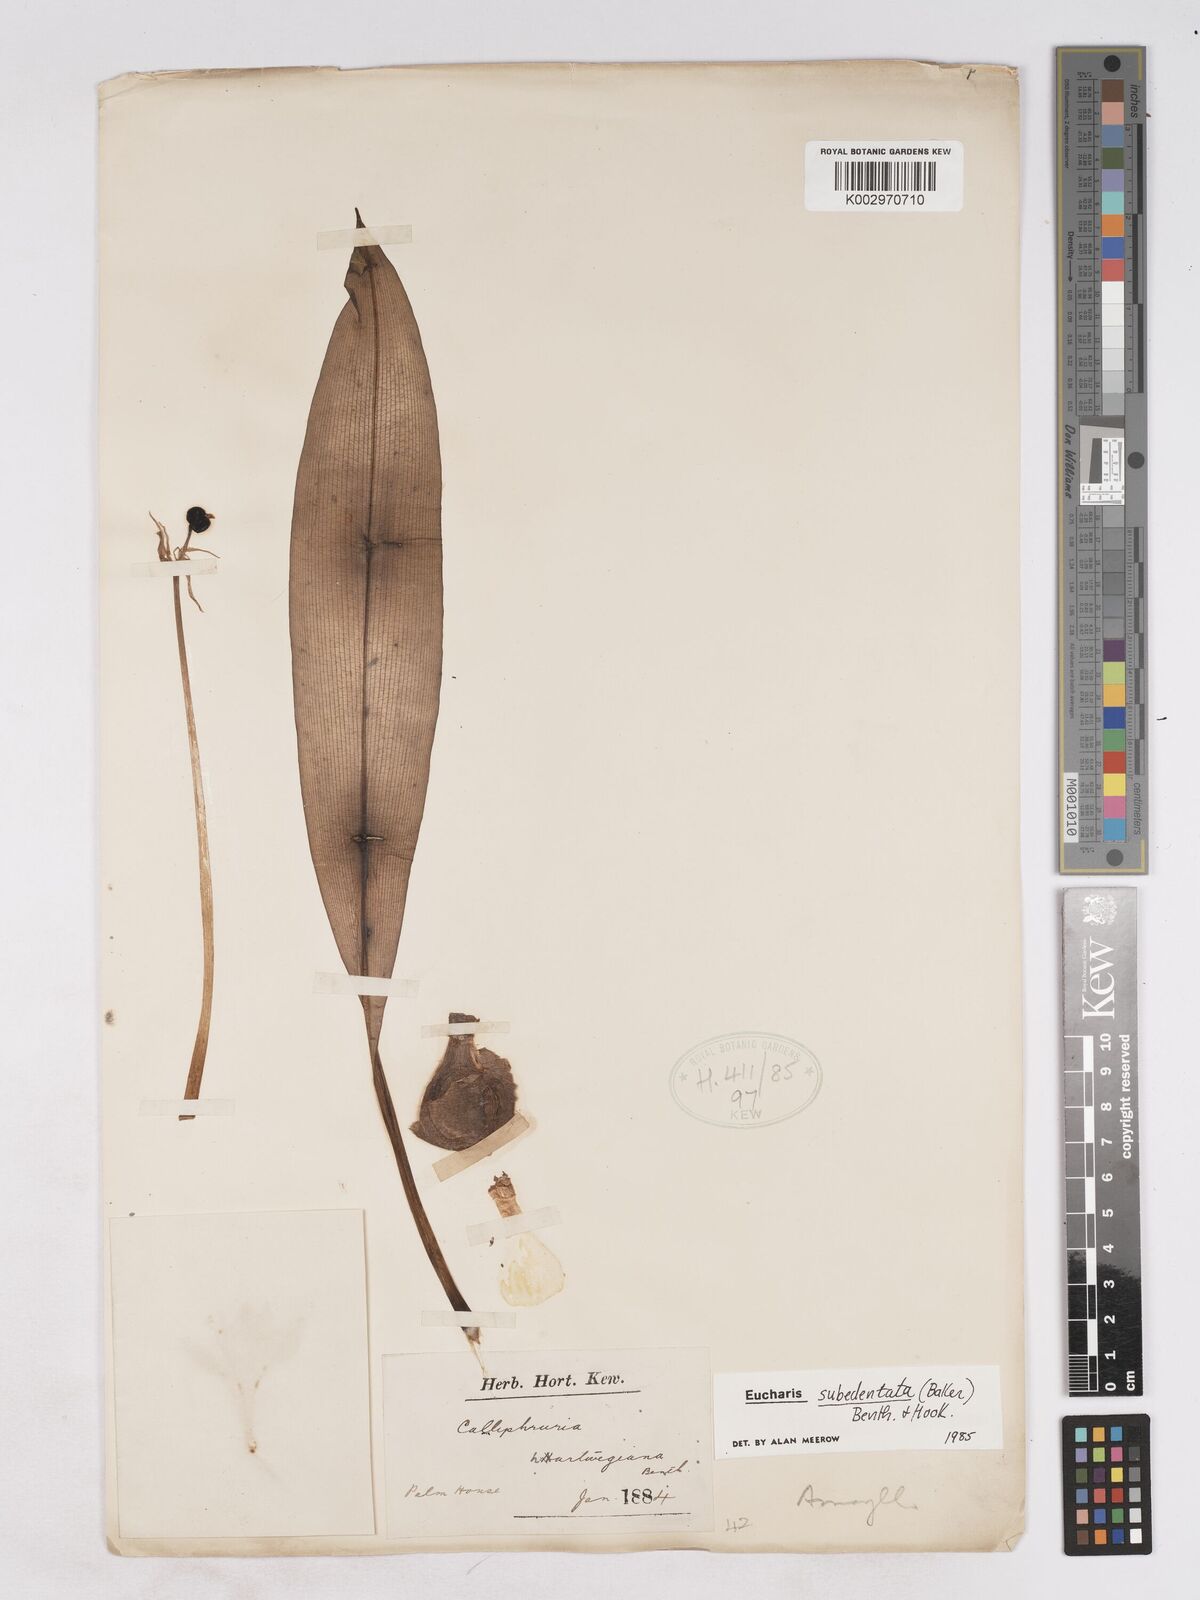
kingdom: Plantae
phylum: Tracheophyta
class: Liliopsida
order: Asparagales
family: Amaryllidaceae
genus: Urceolina
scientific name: Urceolina subedentata
